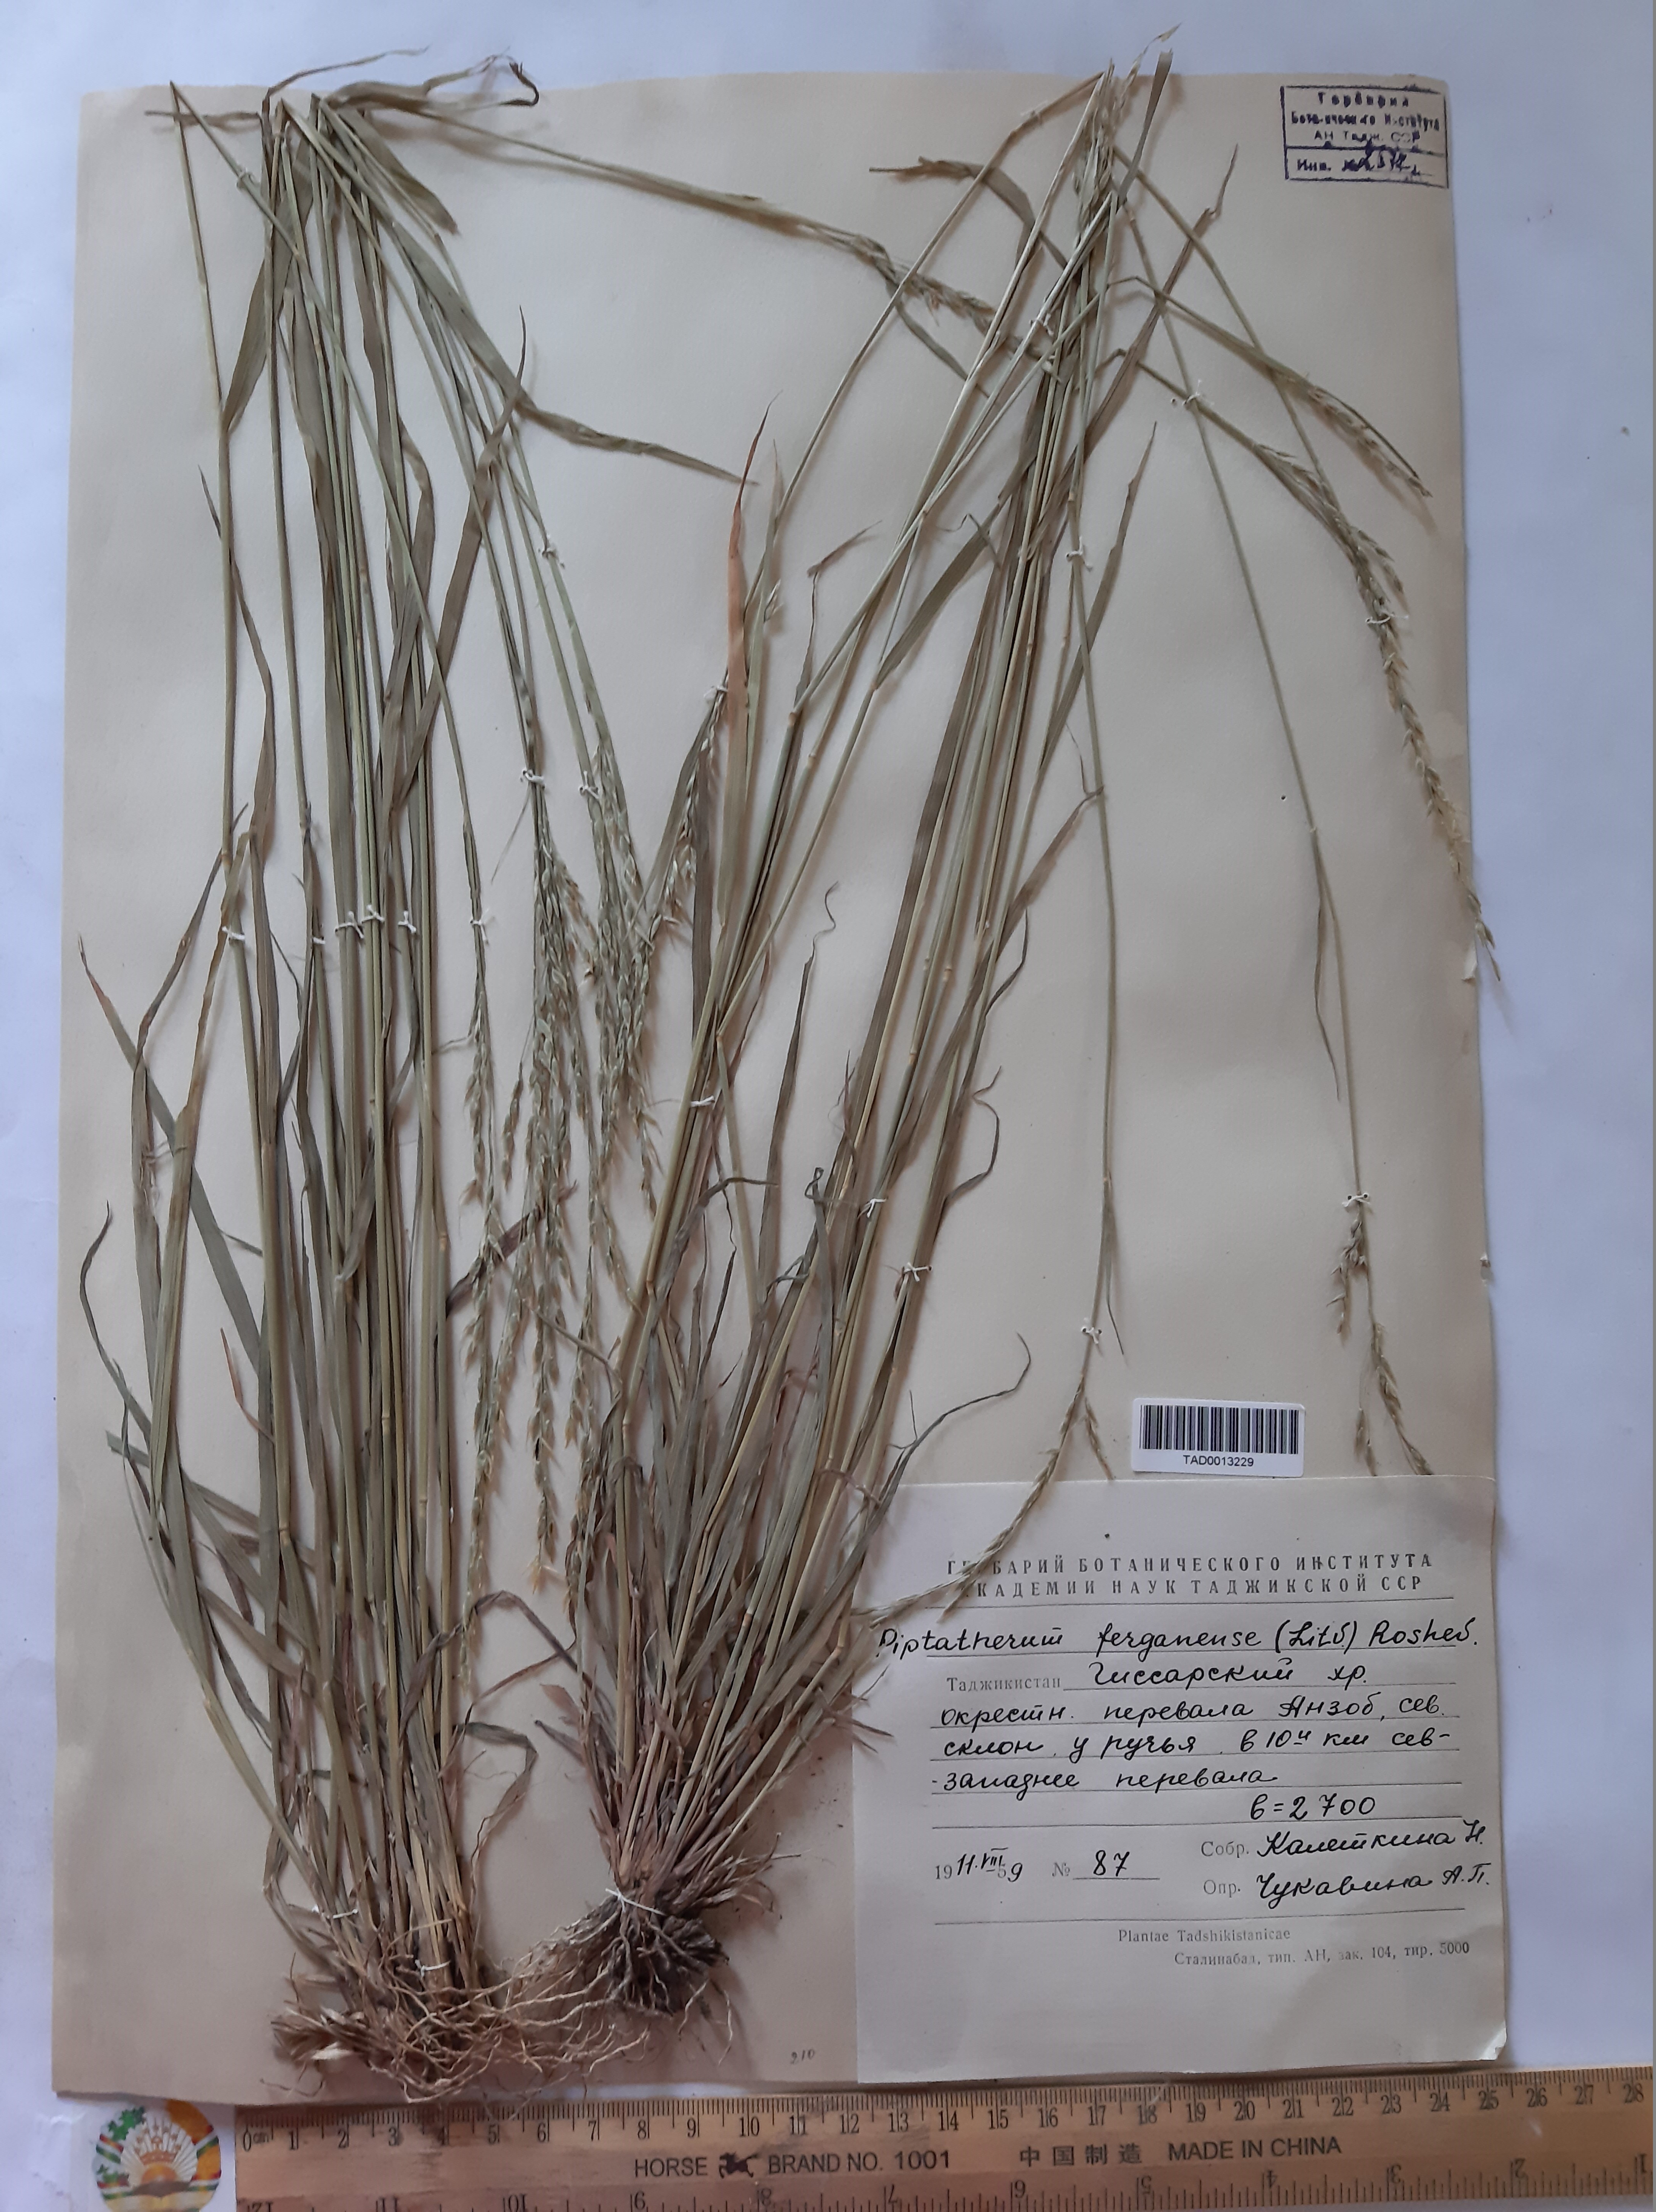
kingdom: Plantae
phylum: Tracheophyta
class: Liliopsida
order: Poales
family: Poaceae
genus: Piptatherum
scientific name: Piptatherum ferganense
